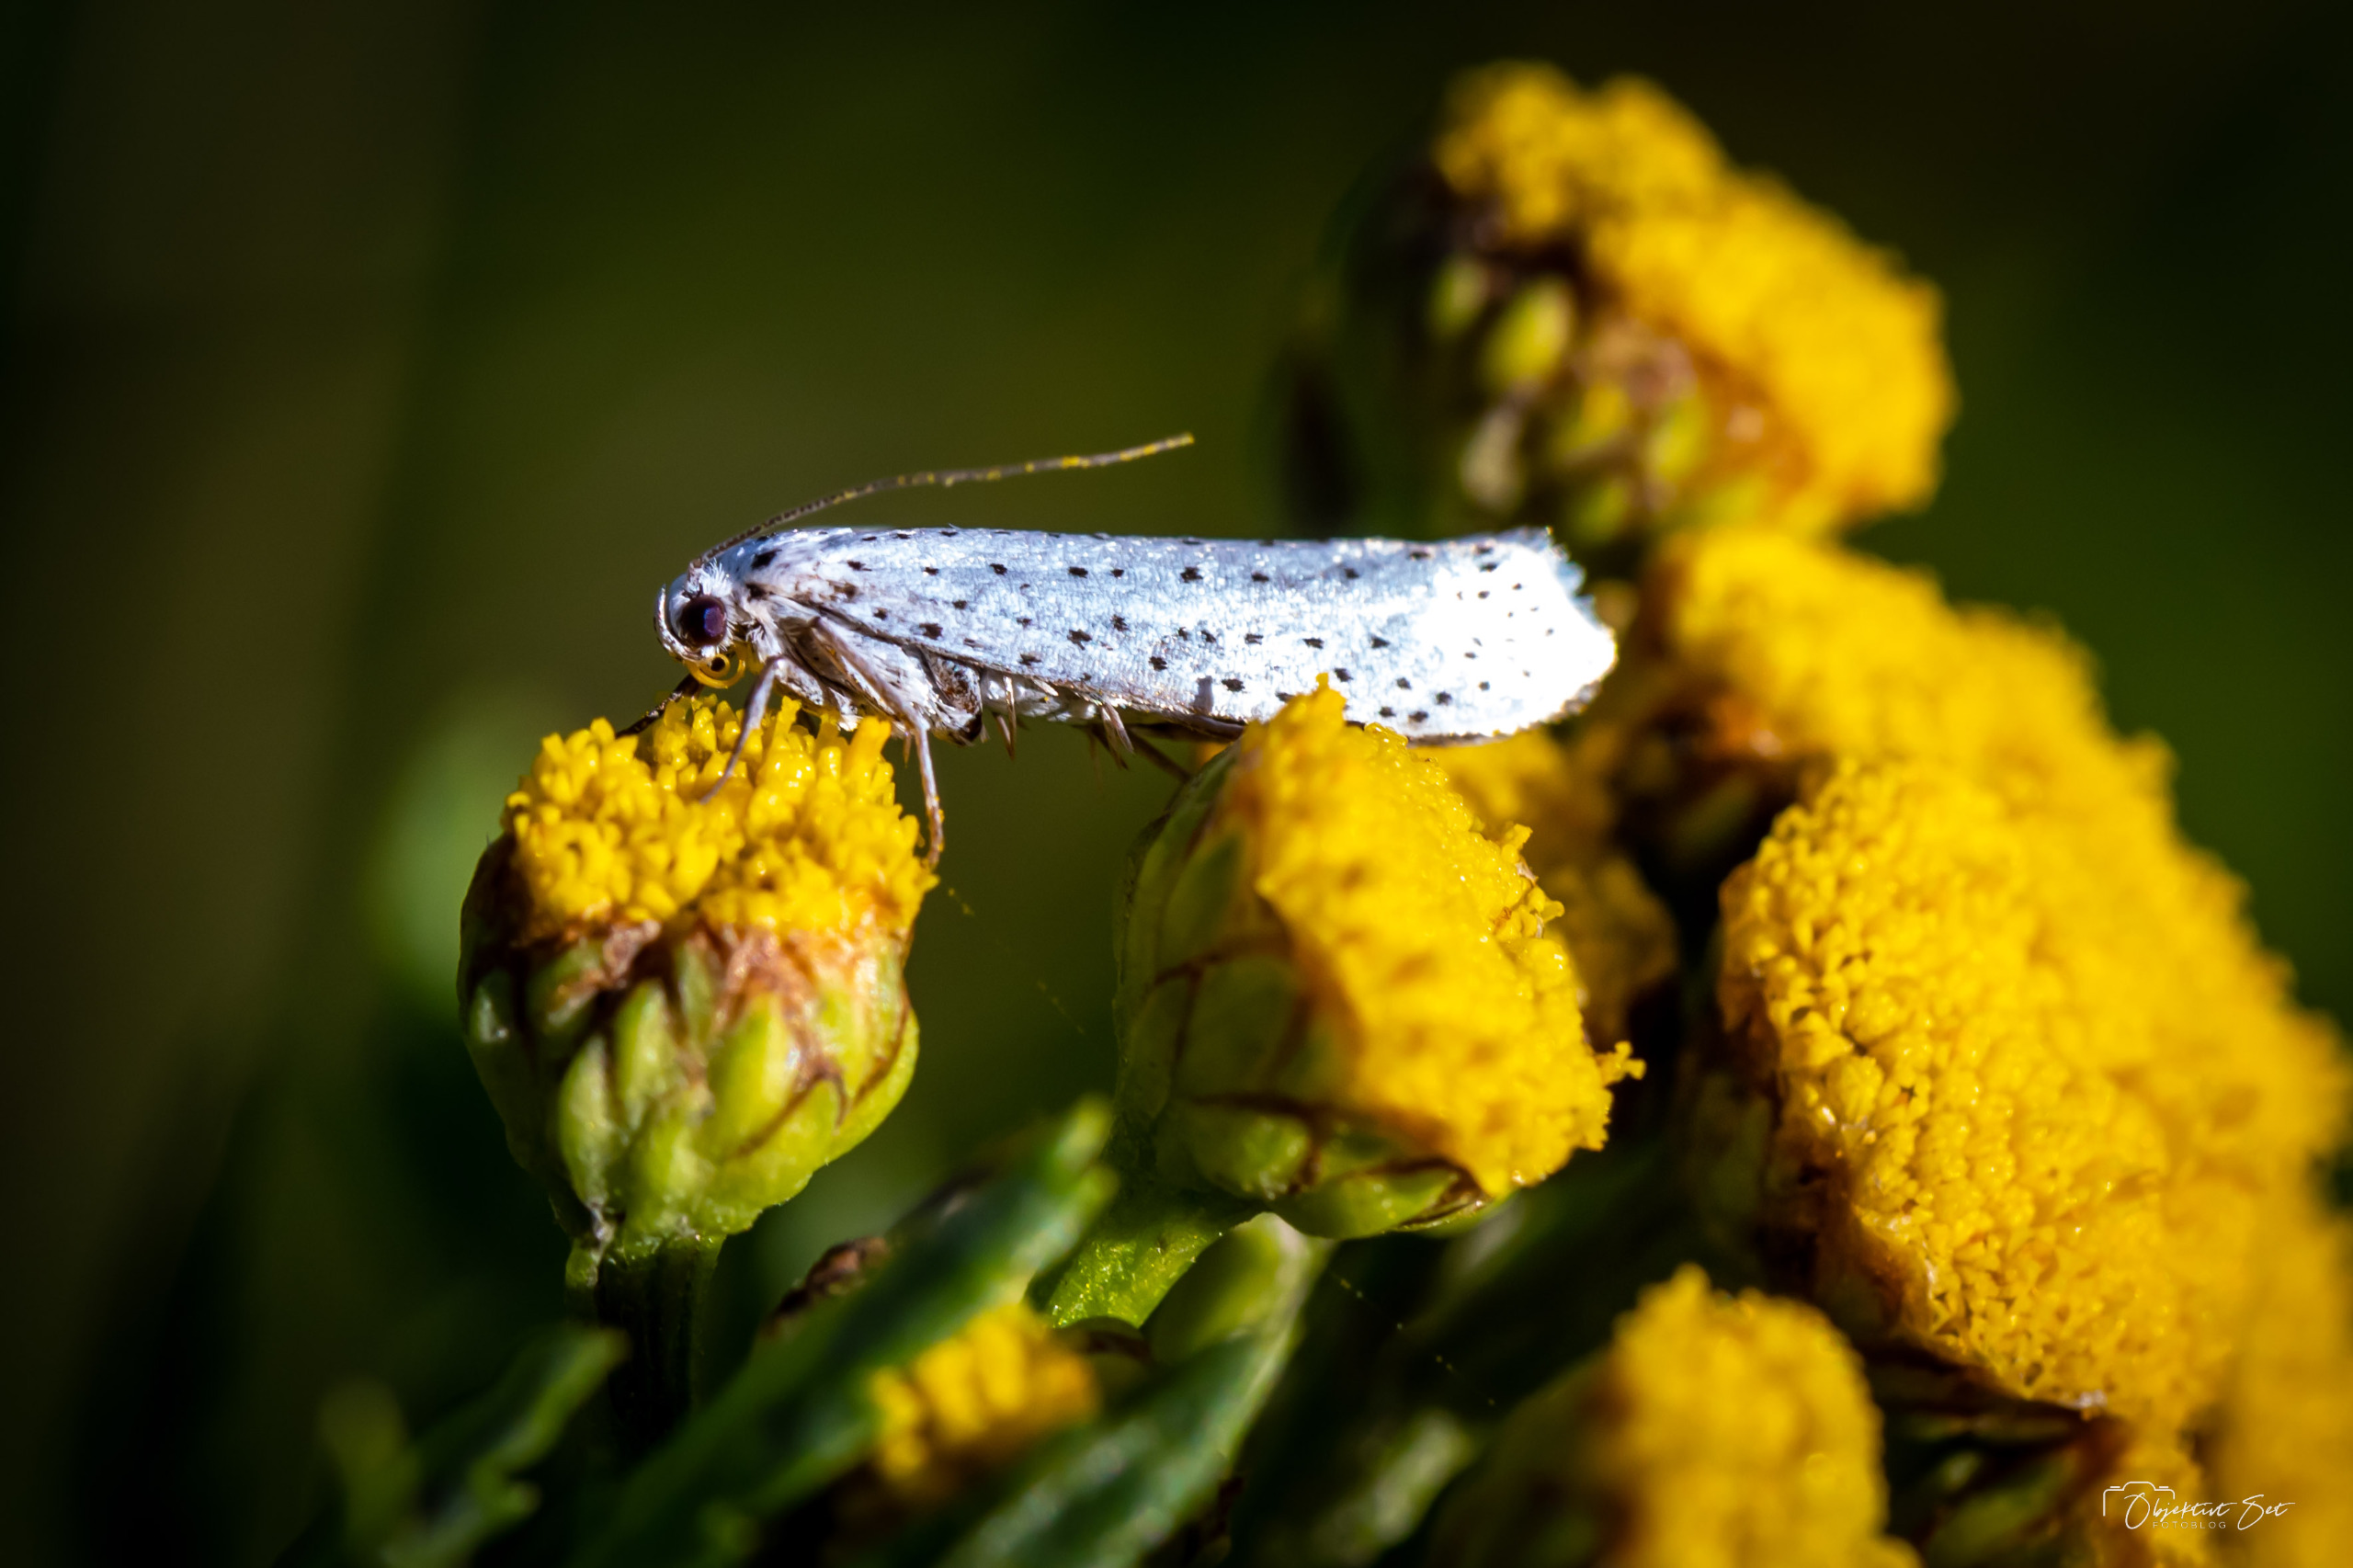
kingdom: Animalia
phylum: Arthropoda
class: Insecta
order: Lepidoptera
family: Yponomeutidae
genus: Yponomeuta
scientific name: Yponomeuta evonymella
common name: Hægspindemøl
